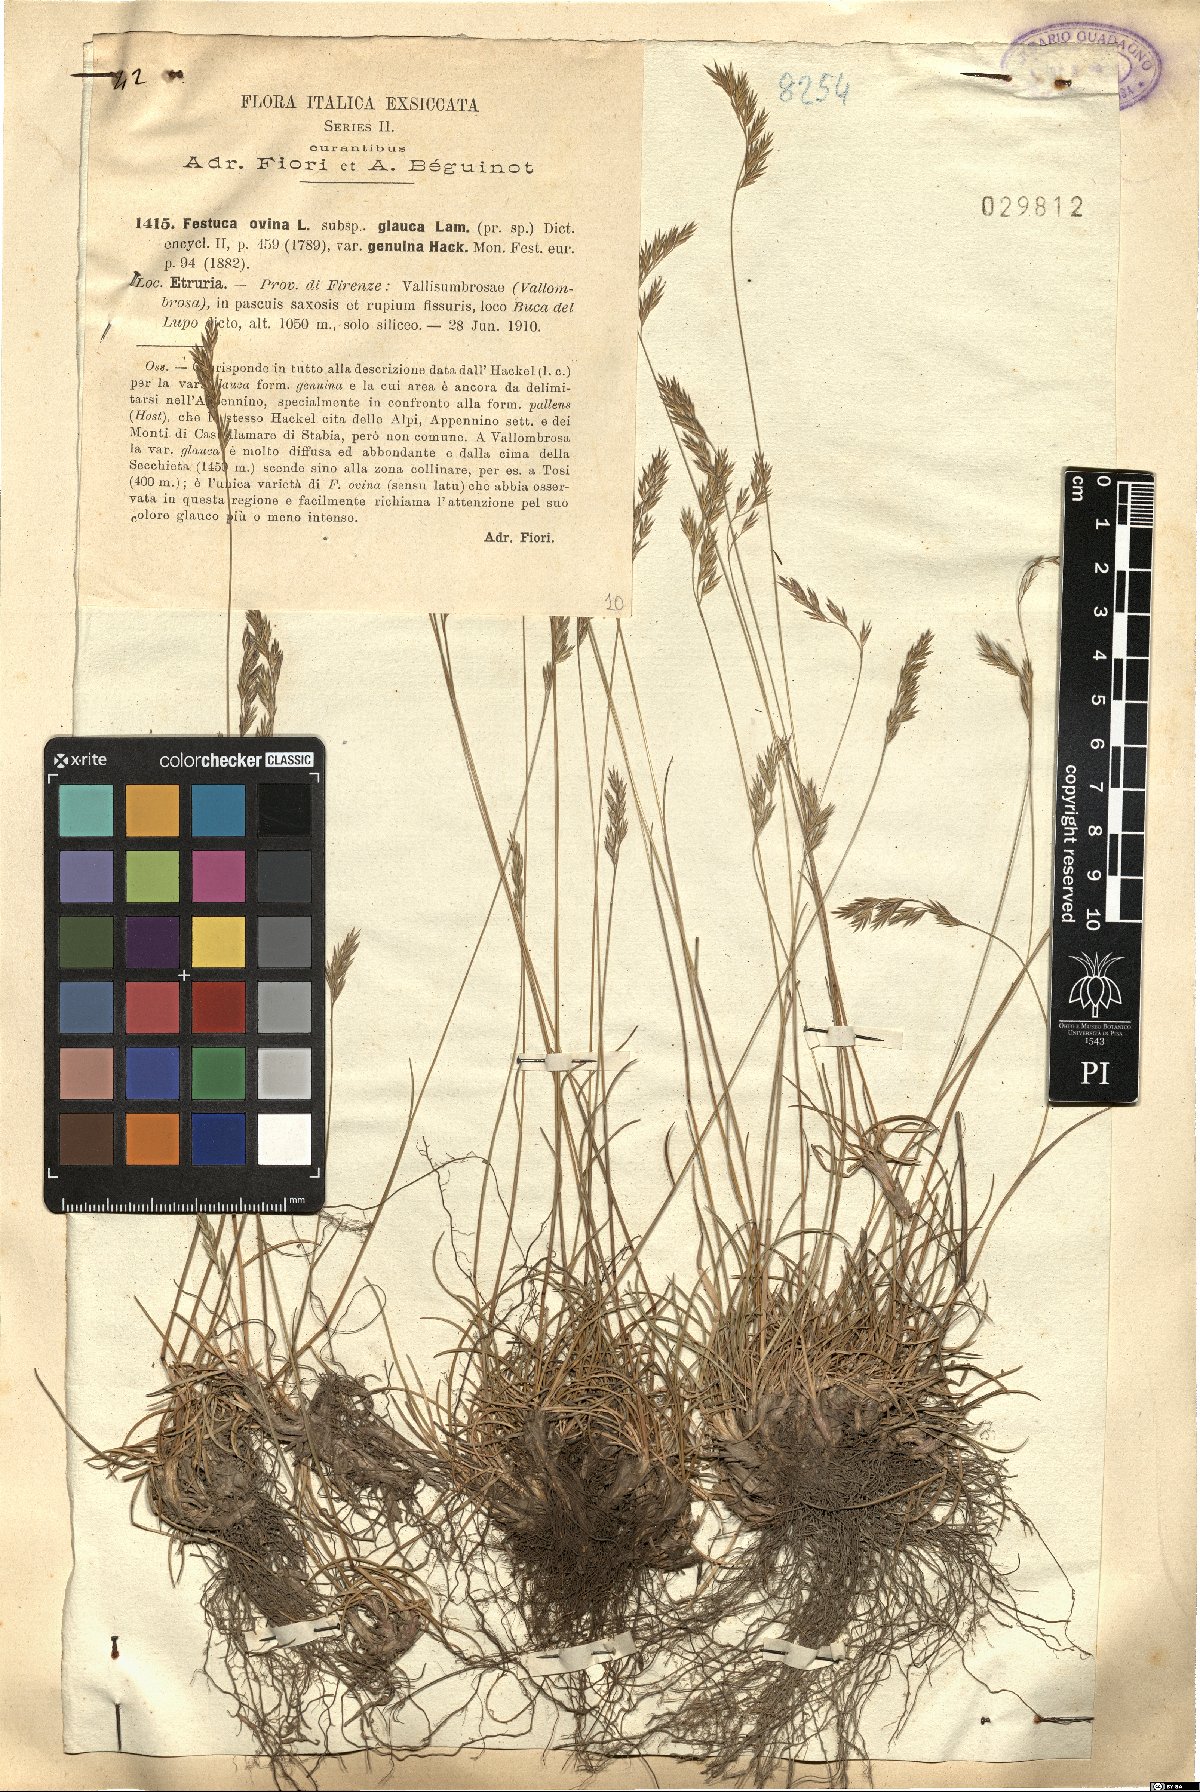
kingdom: Plantae
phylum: Tracheophyta
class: Liliopsida
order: Poales
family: Poaceae
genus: Festuca
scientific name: Festuca inops
